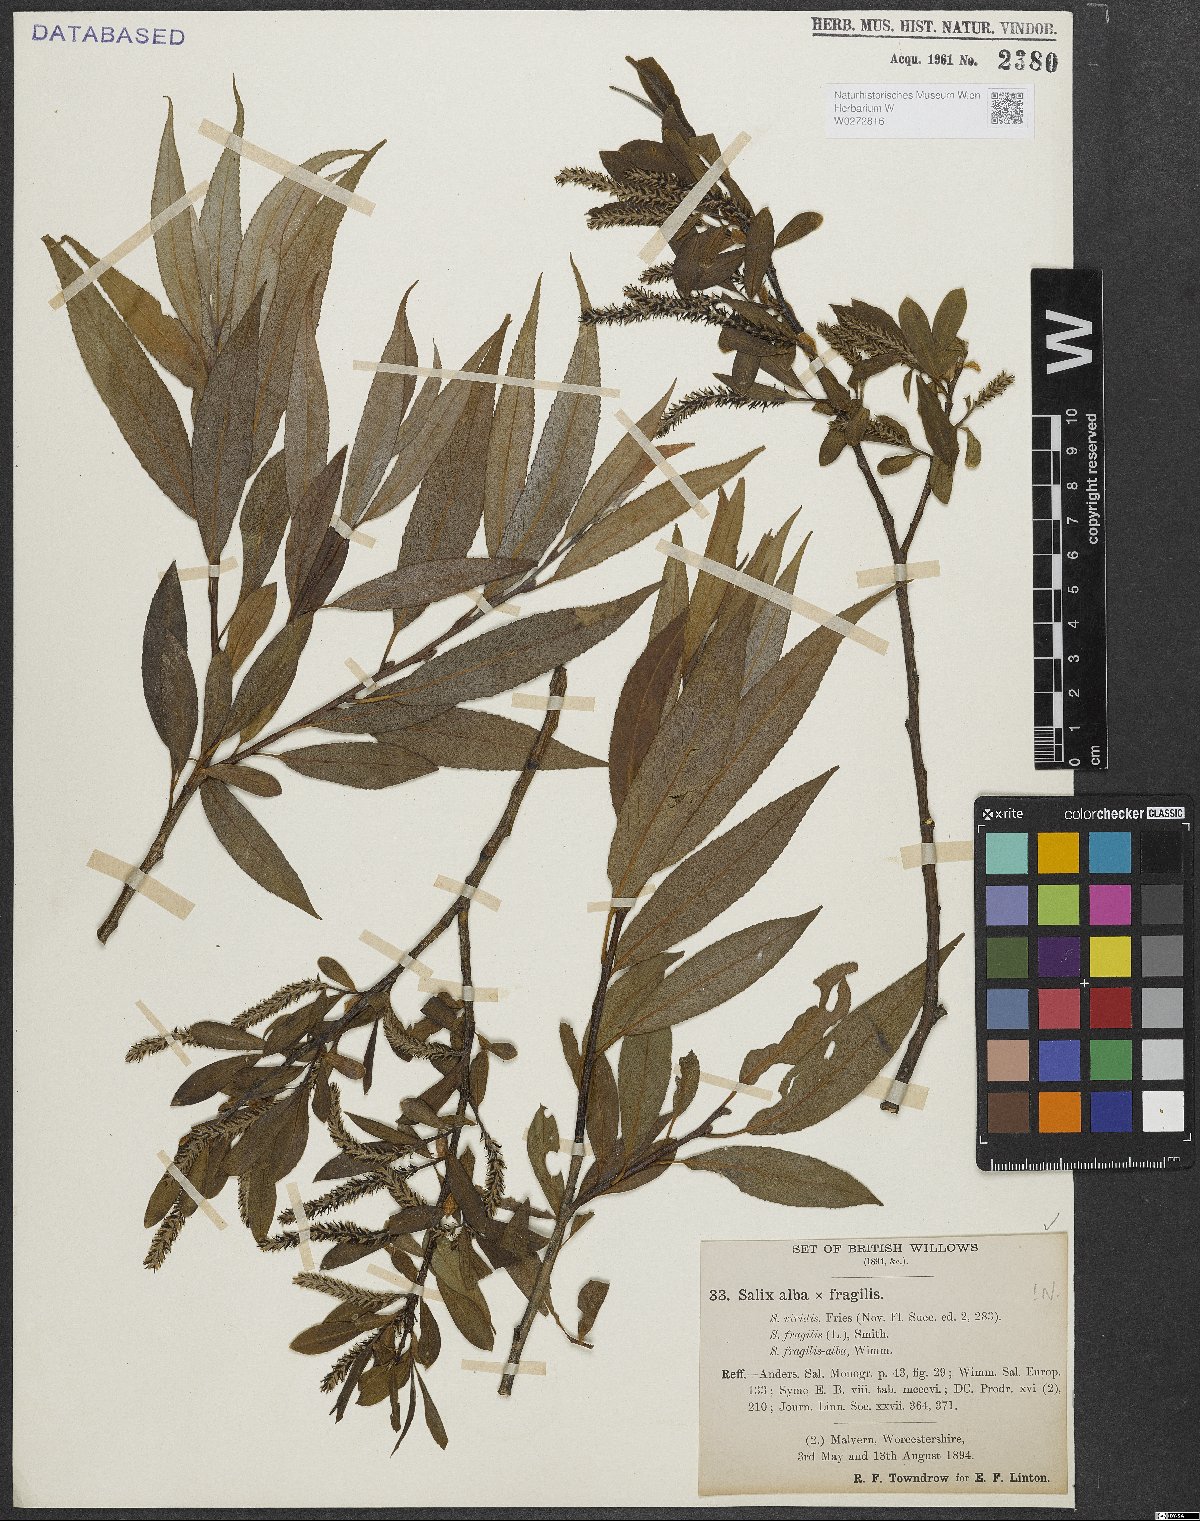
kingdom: Plantae
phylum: Tracheophyta
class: Magnoliopsida
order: Malpighiales
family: Salicaceae
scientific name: Salicaceae
